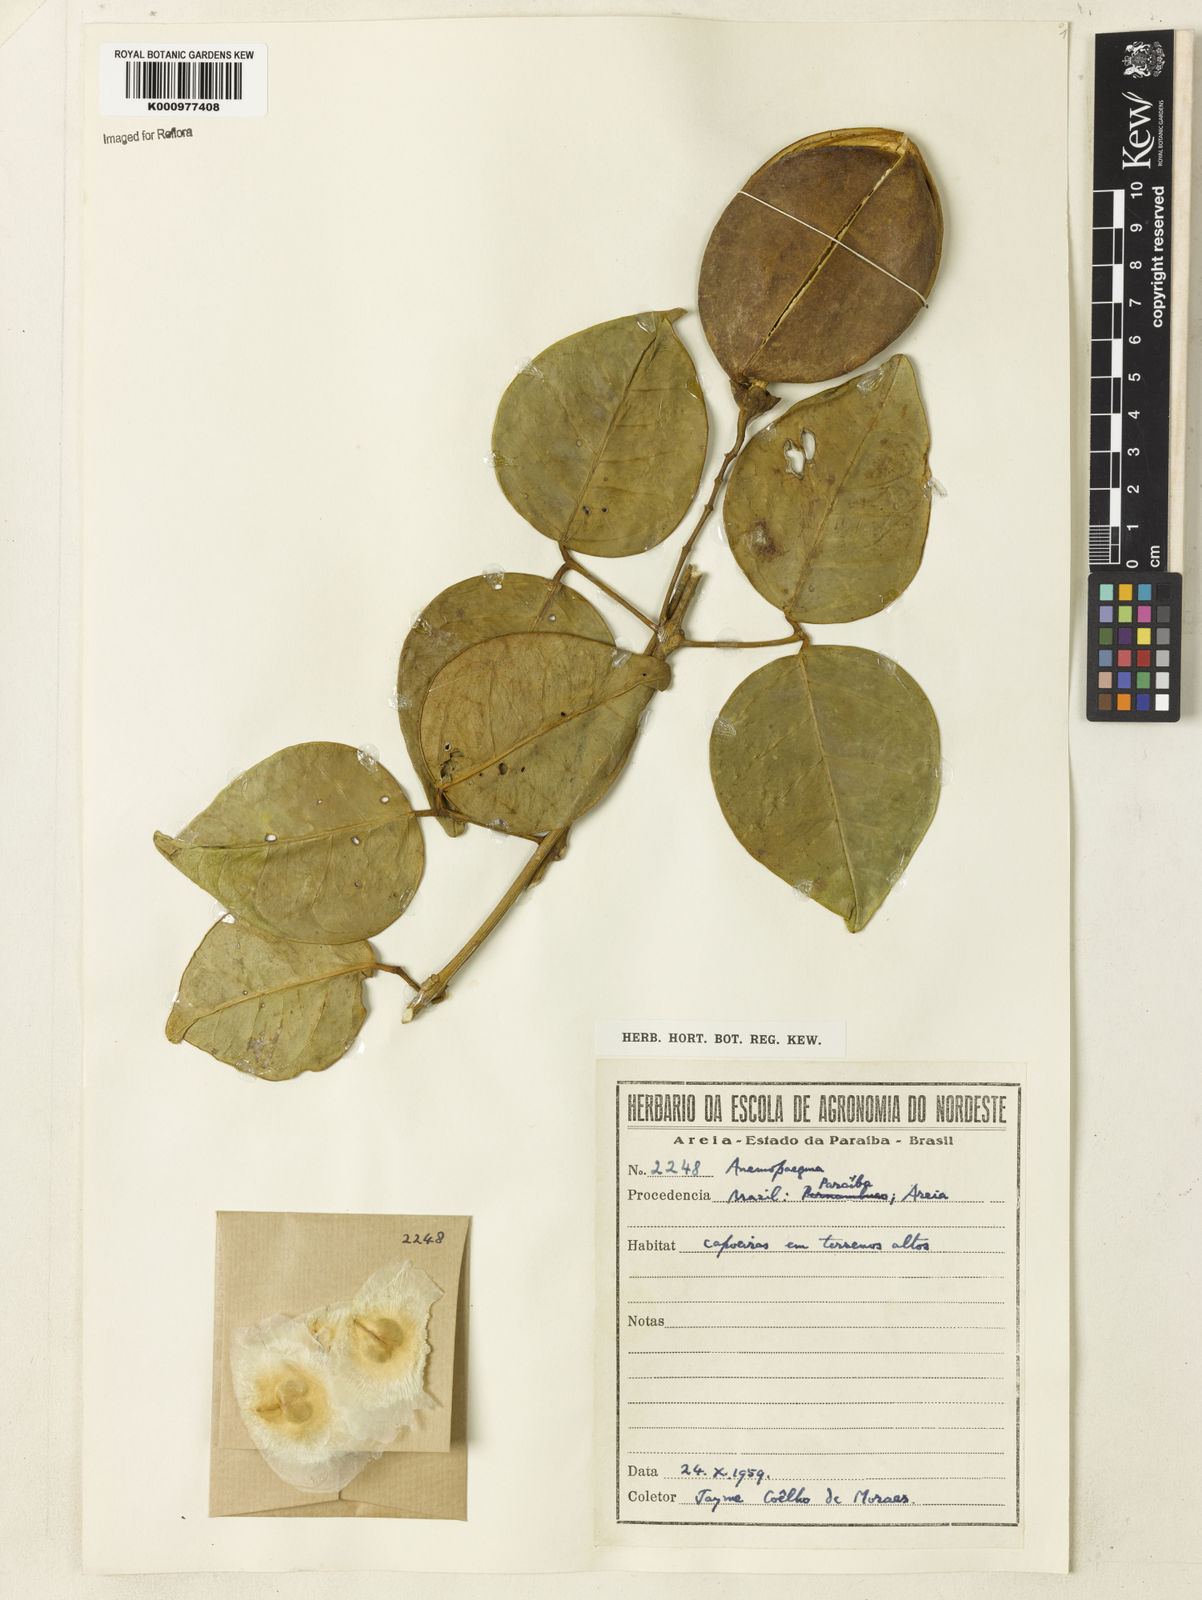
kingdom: Plantae
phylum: Tracheophyta
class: Magnoliopsida
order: Lamiales
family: Bignoniaceae
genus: Anemopaegma
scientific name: Anemopaegma
